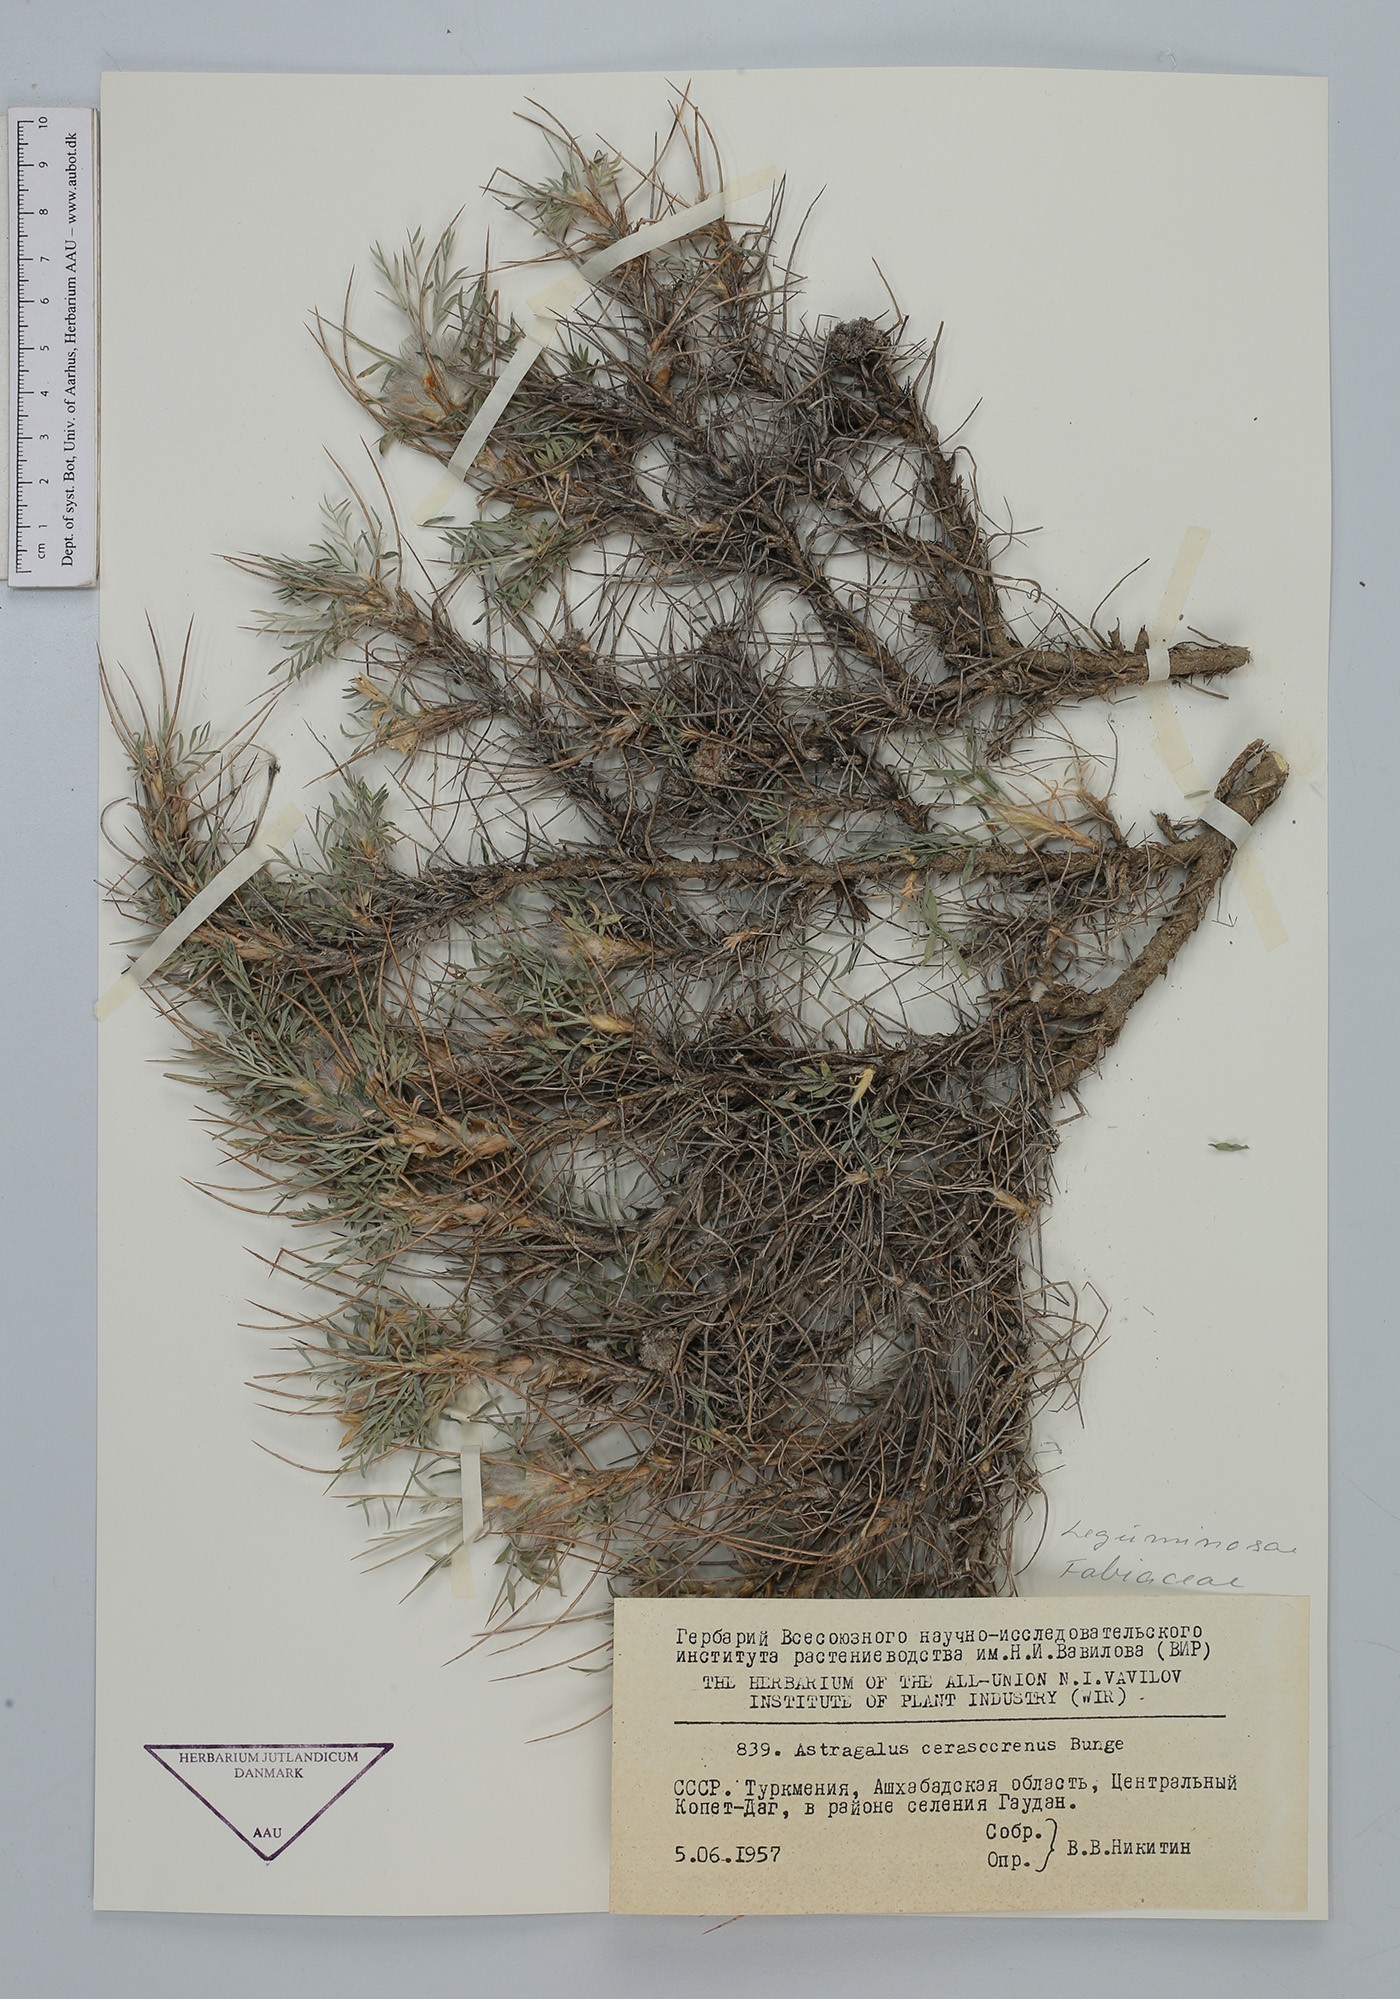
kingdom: Plantae
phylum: Tracheophyta
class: Magnoliopsida
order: Fabales
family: Fabaceae
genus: Astragalus
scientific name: Astragalus cerasocrenus
